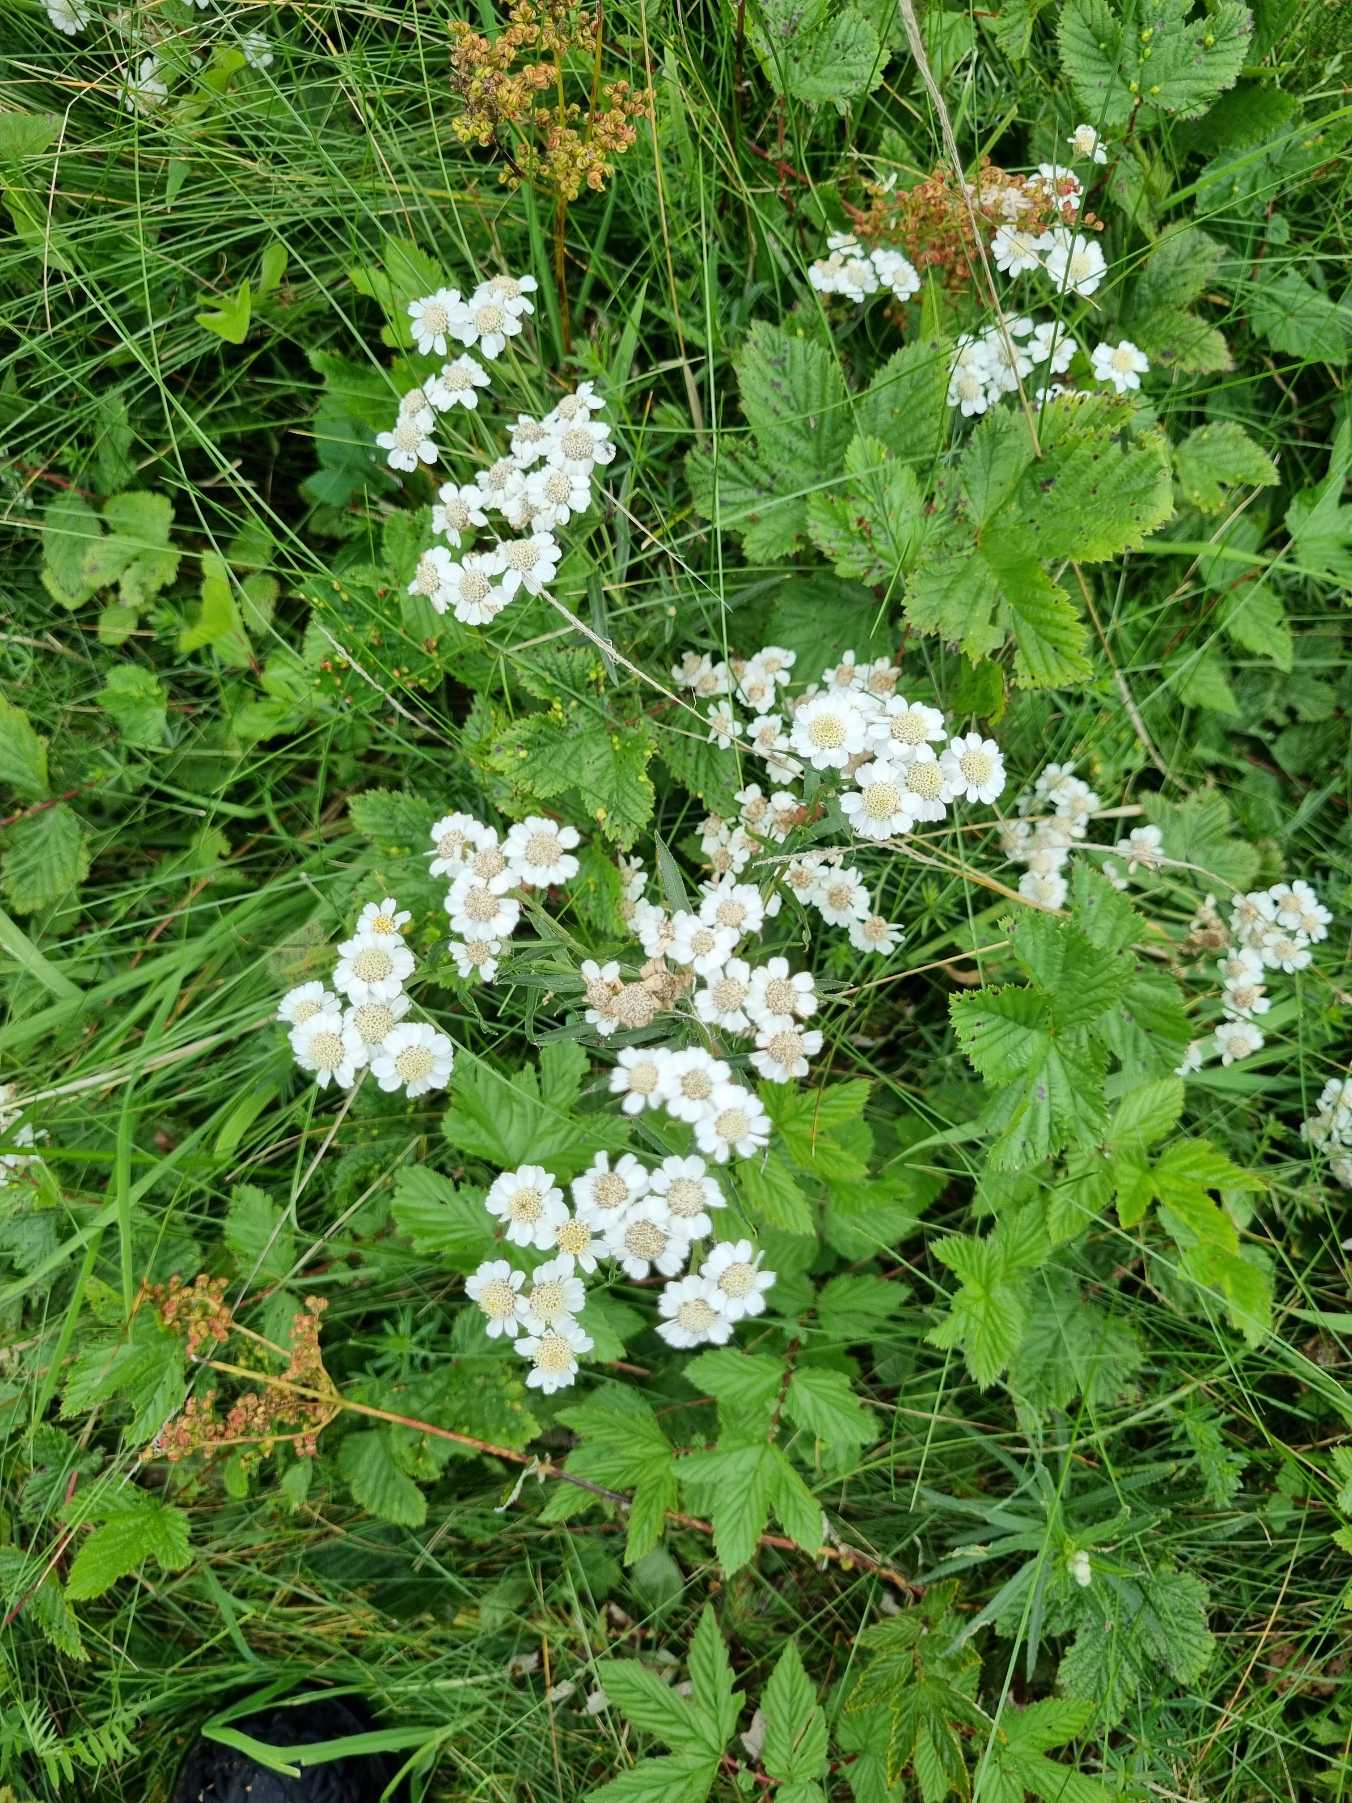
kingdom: Plantae
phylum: Tracheophyta
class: Magnoliopsida
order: Asterales
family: Asteraceae
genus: Achillea
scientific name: Achillea ptarmica
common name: Nyse-røllike
